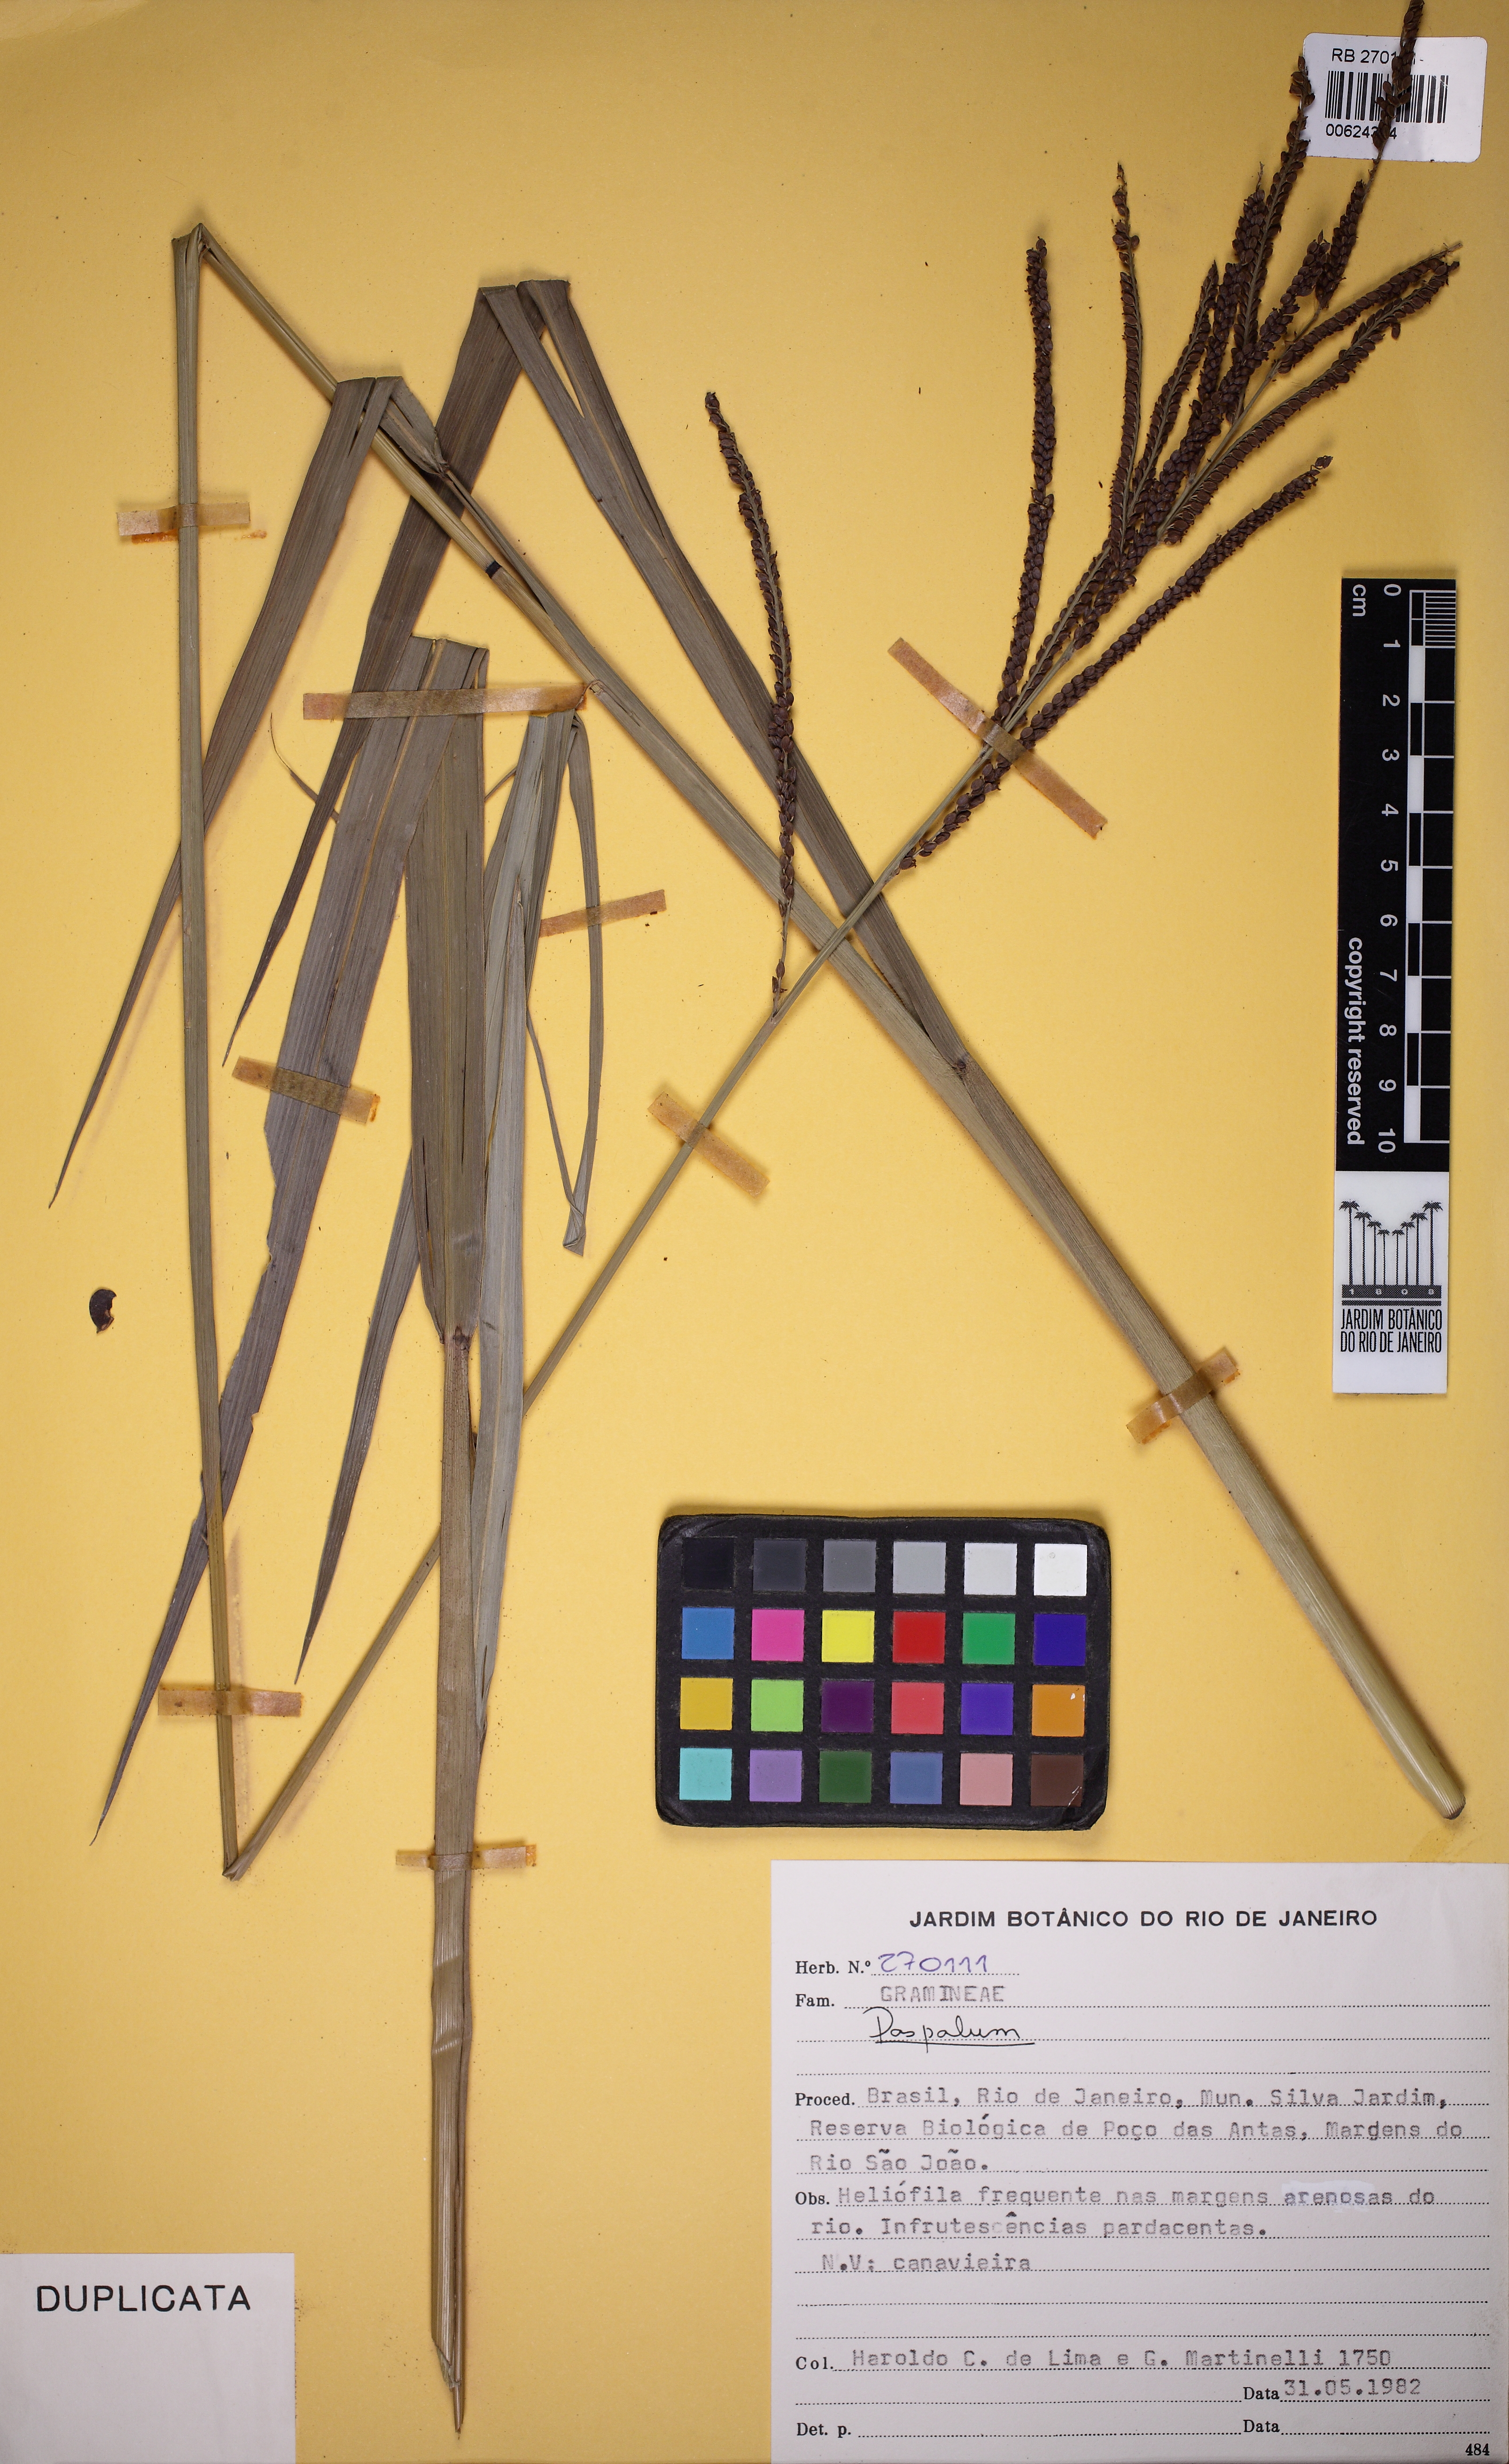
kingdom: Plantae
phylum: Tracheophyta
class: Liliopsida
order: Poales
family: Poaceae
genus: Paspalum
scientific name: Paspalum
